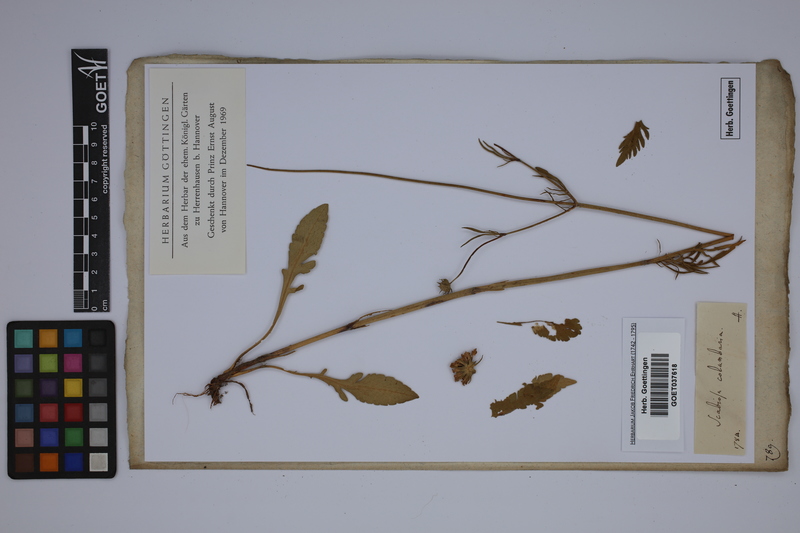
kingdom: Plantae
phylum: Tracheophyta
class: Magnoliopsida
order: Dipsacales
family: Caprifoliaceae
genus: Scabiosa
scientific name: Scabiosa columbaria
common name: Small scabious
